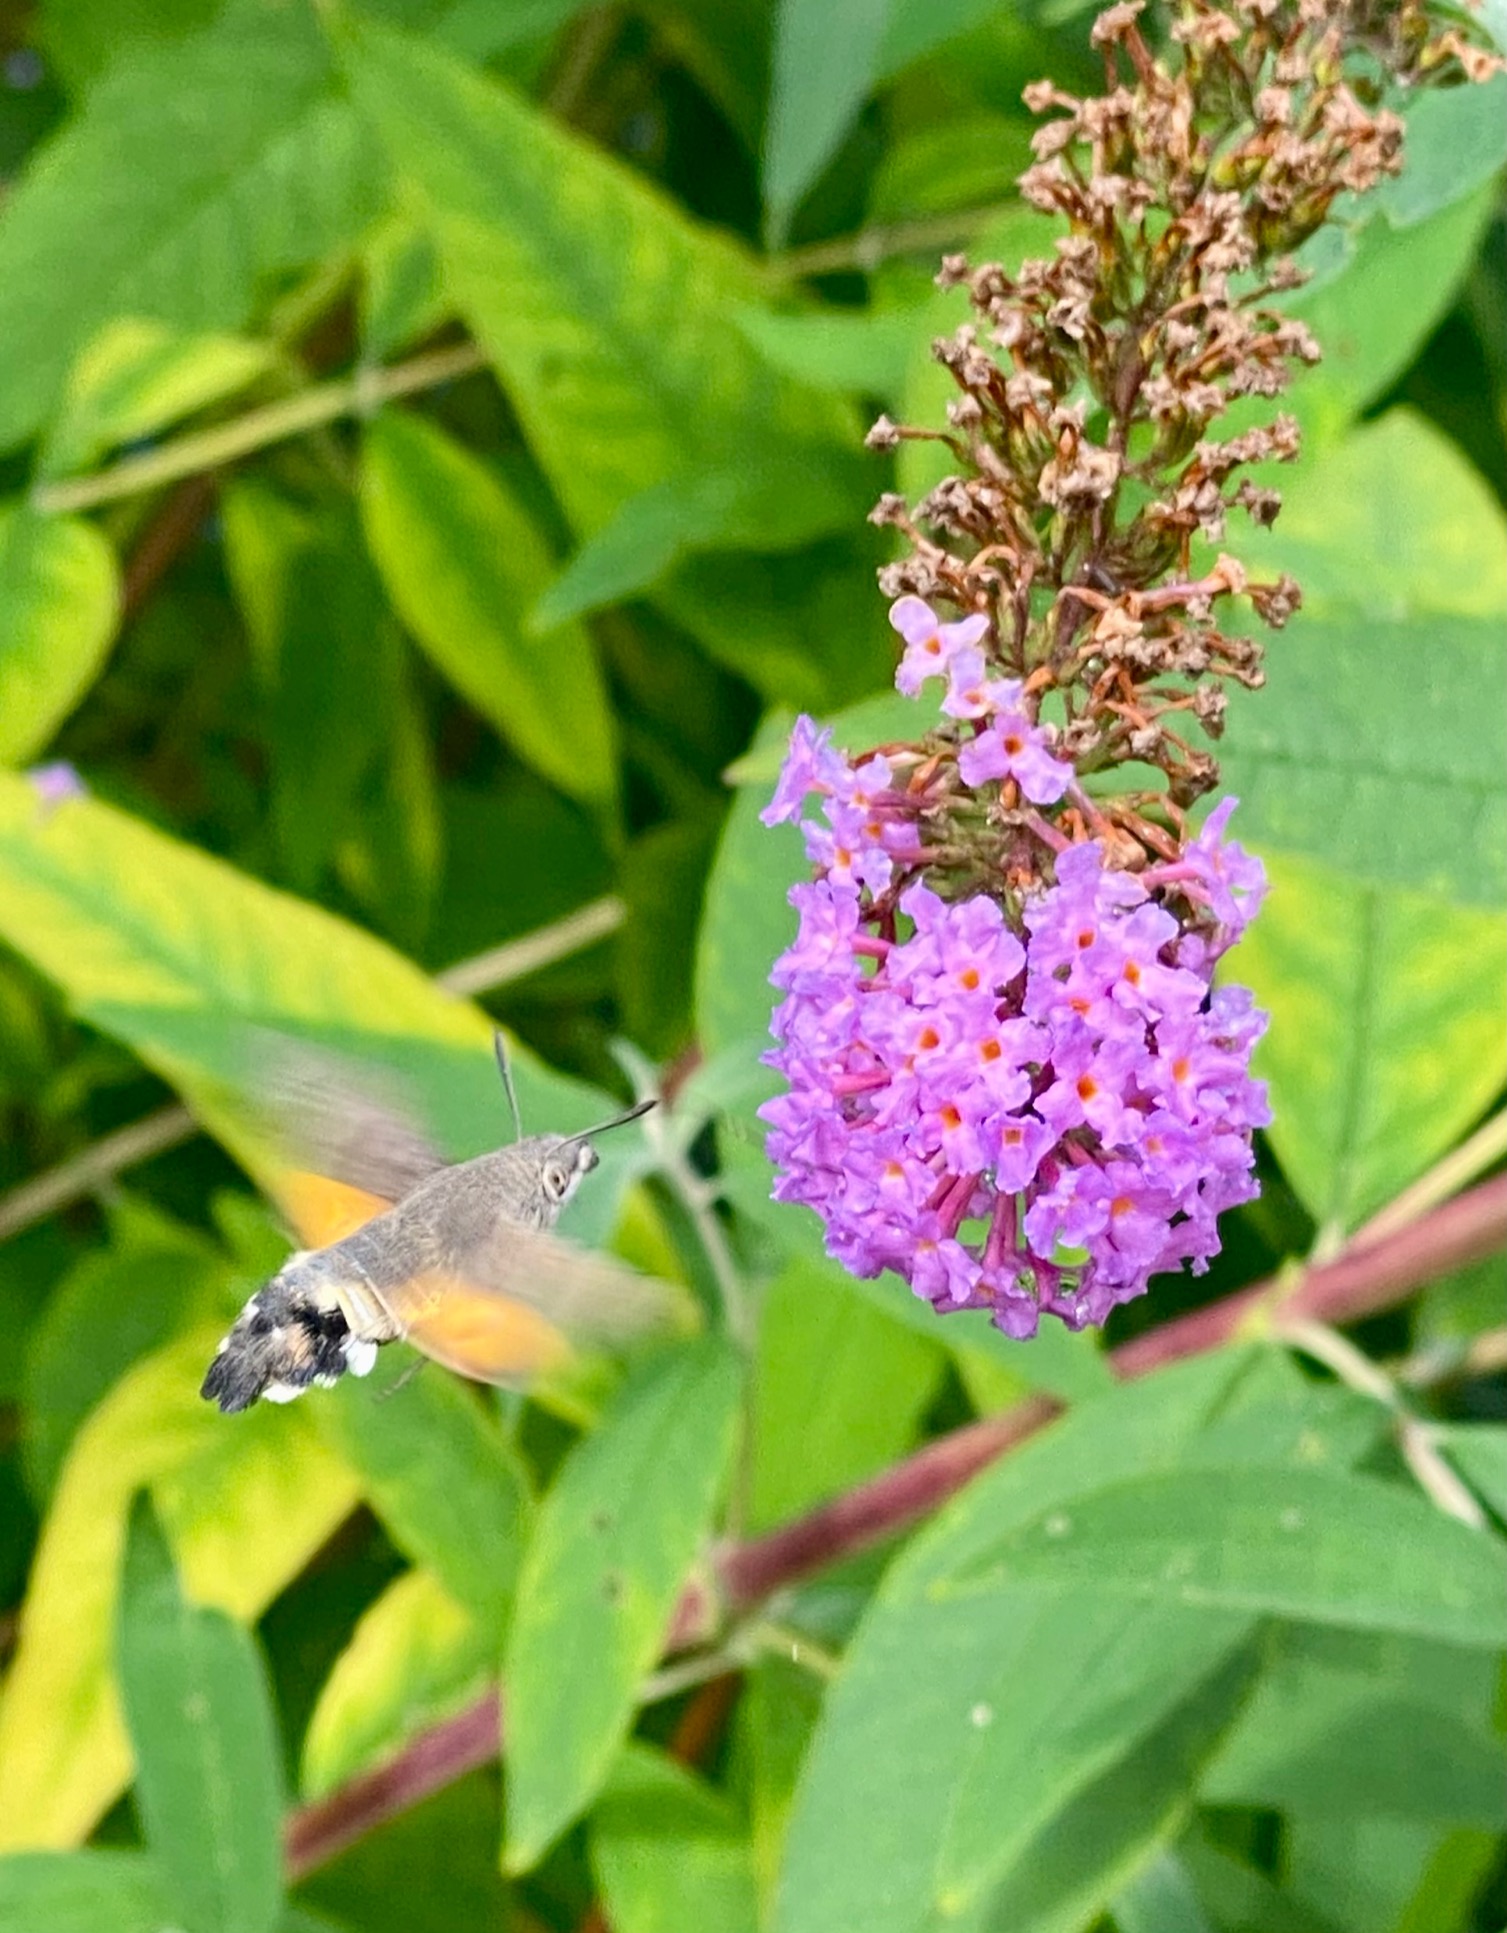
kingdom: Animalia
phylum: Arthropoda
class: Insecta
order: Lepidoptera
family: Sphingidae
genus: Macroglossum
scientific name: Macroglossum stellatarum
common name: Duehale
